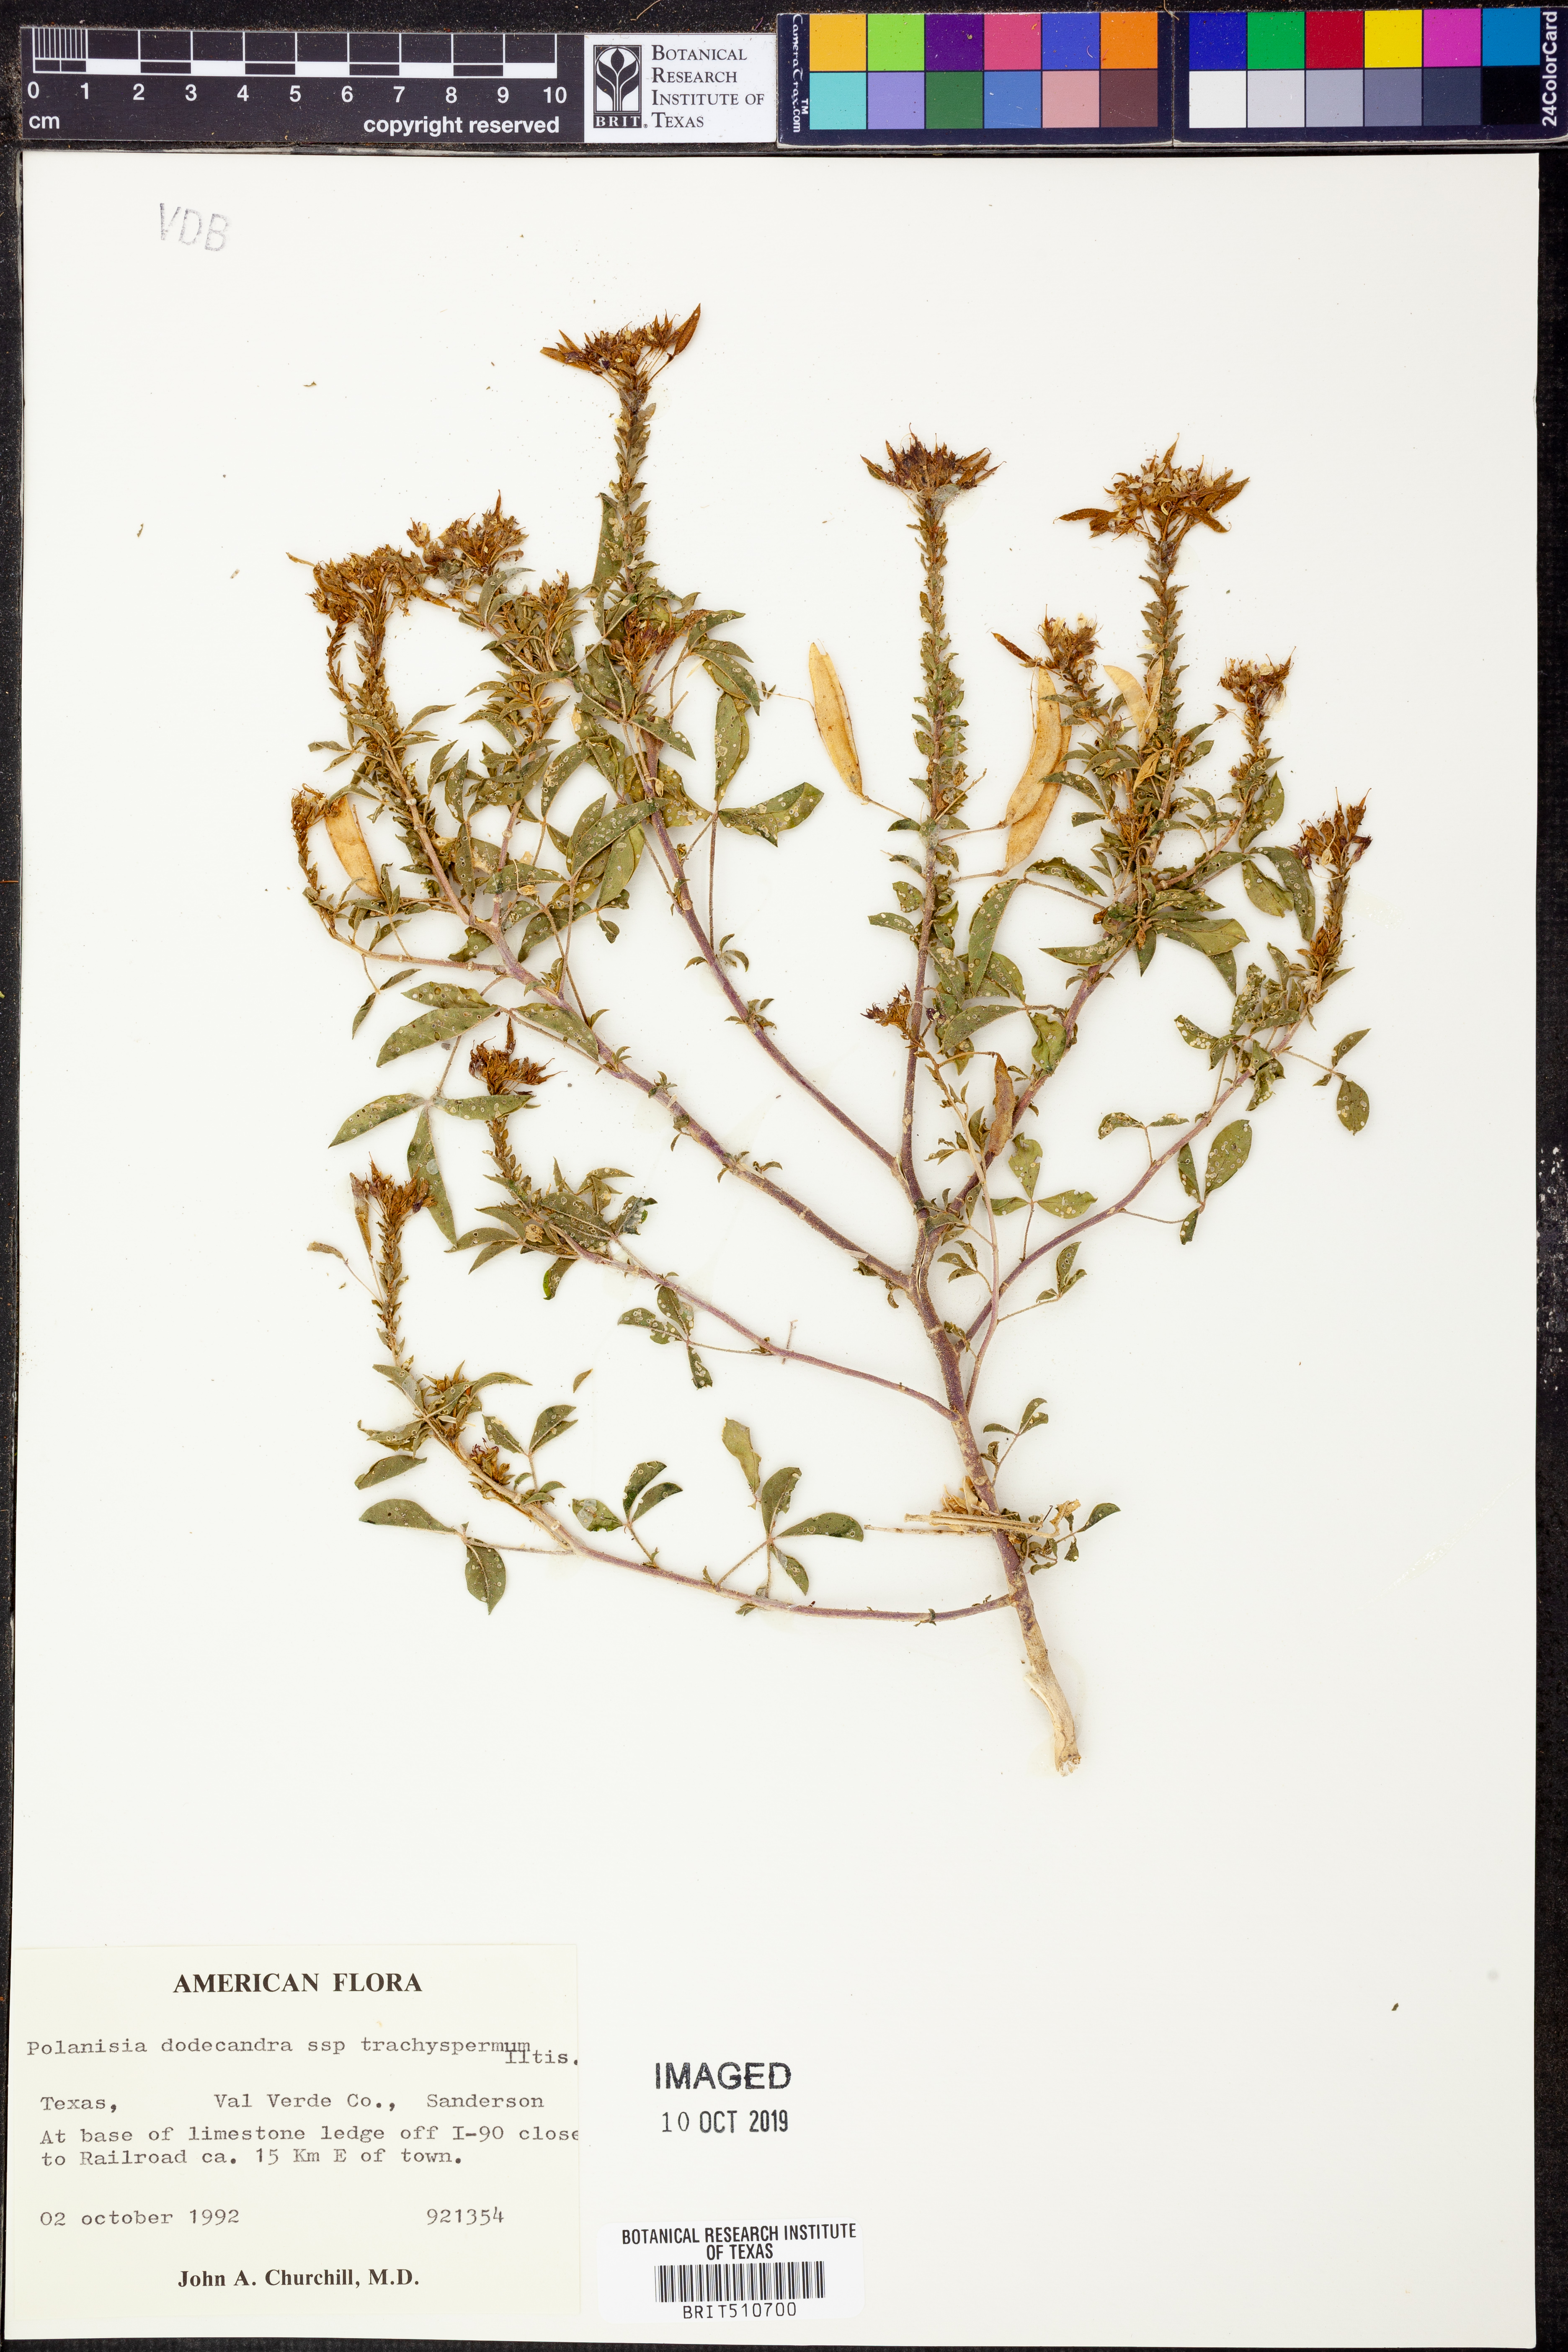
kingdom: Plantae
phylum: Tracheophyta
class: Magnoliopsida
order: Brassicales
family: Cleomaceae
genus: Polanisia
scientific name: Polanisia trachysperma
